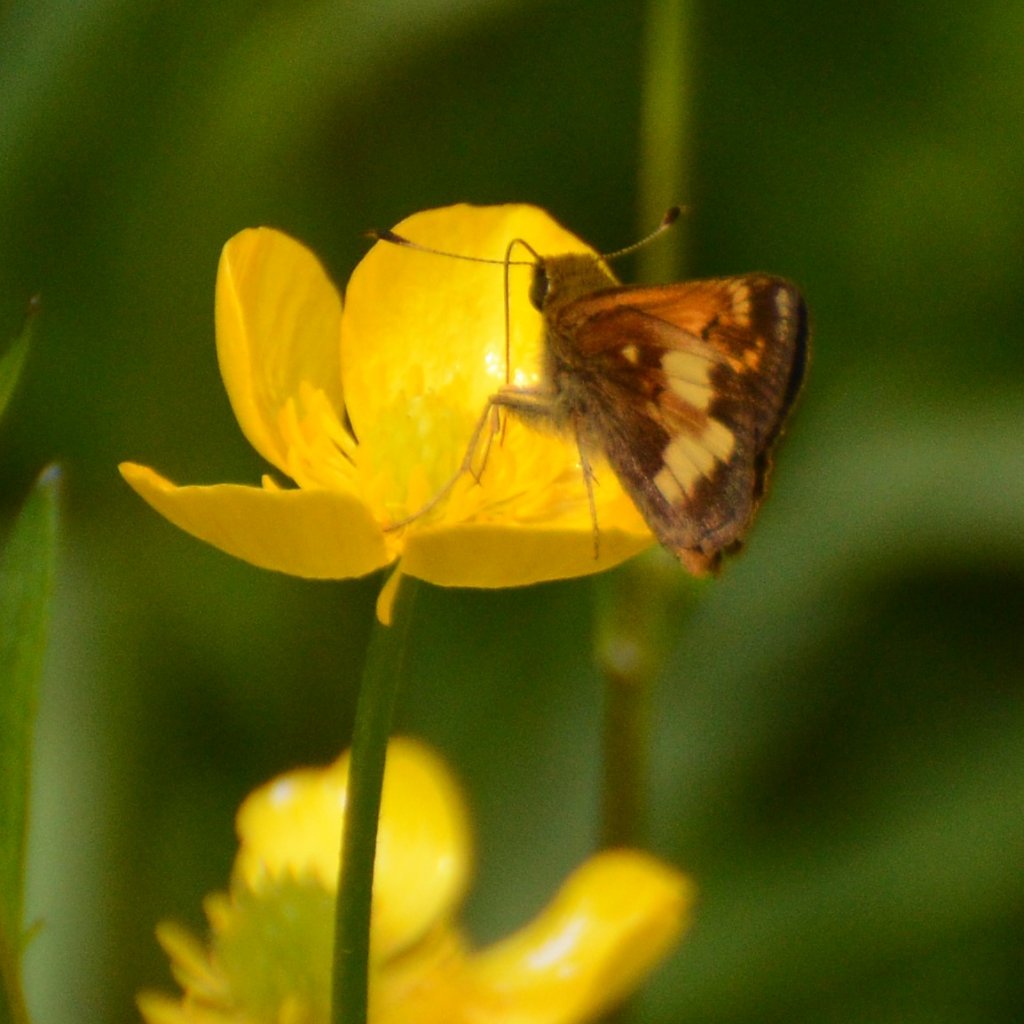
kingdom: Animalia
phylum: Arthropoda
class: Insecta
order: Lepidoptera
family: Hesperiidae
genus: Lon
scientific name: Lon hobomok
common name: Hobomok Skipper
